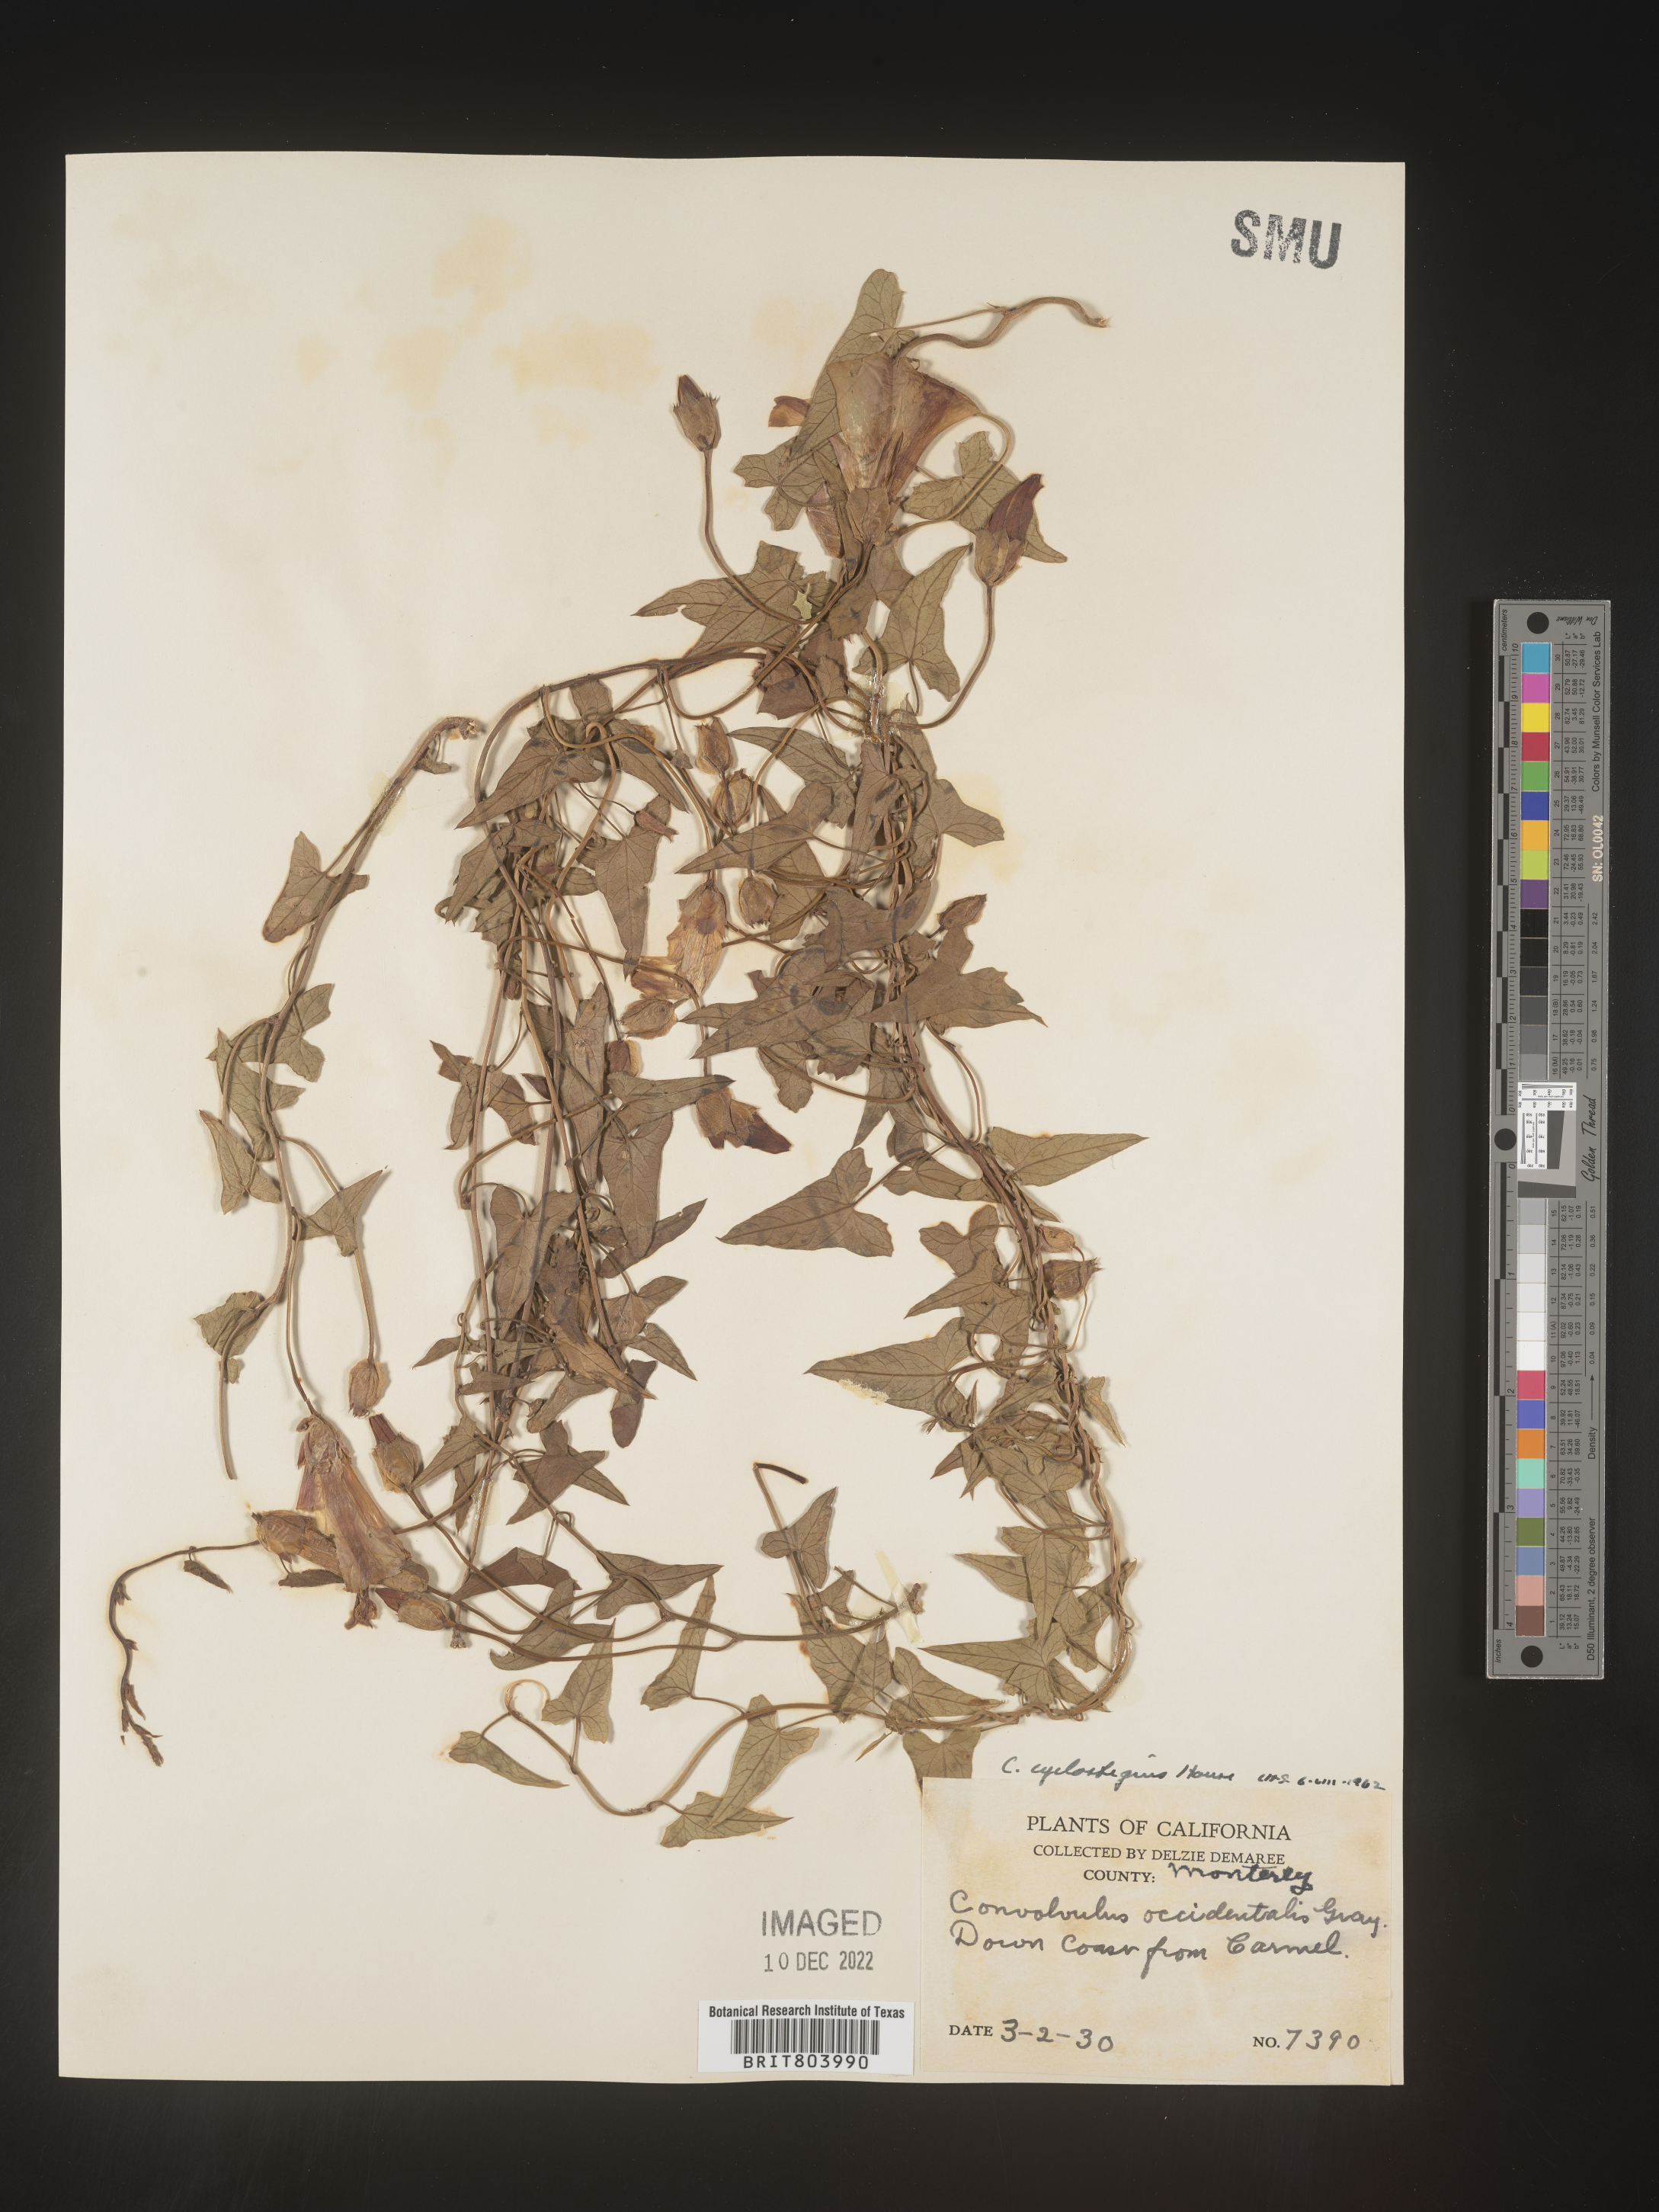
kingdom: Plantae
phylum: Tracheophyta
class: Magnoliopsida
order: Solanales
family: Convolvulaceae
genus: Calystegia
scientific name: Calystegia
